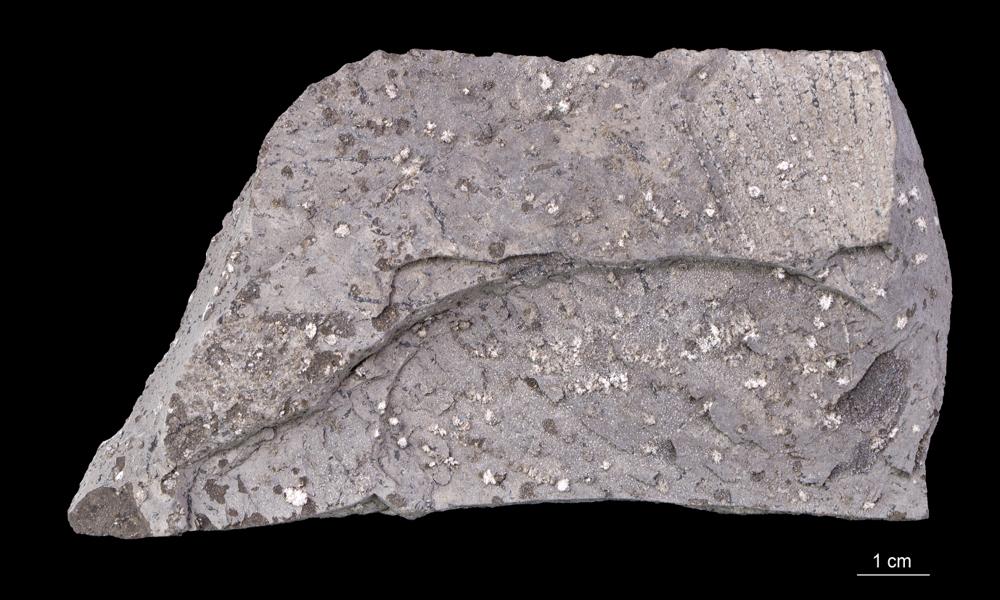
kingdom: Animalia
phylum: Hemichordata
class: Pterobranchia
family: Anisograptidae
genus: Rhabdinopora
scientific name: Rhabdinopora Gorgonia flabelliformis
